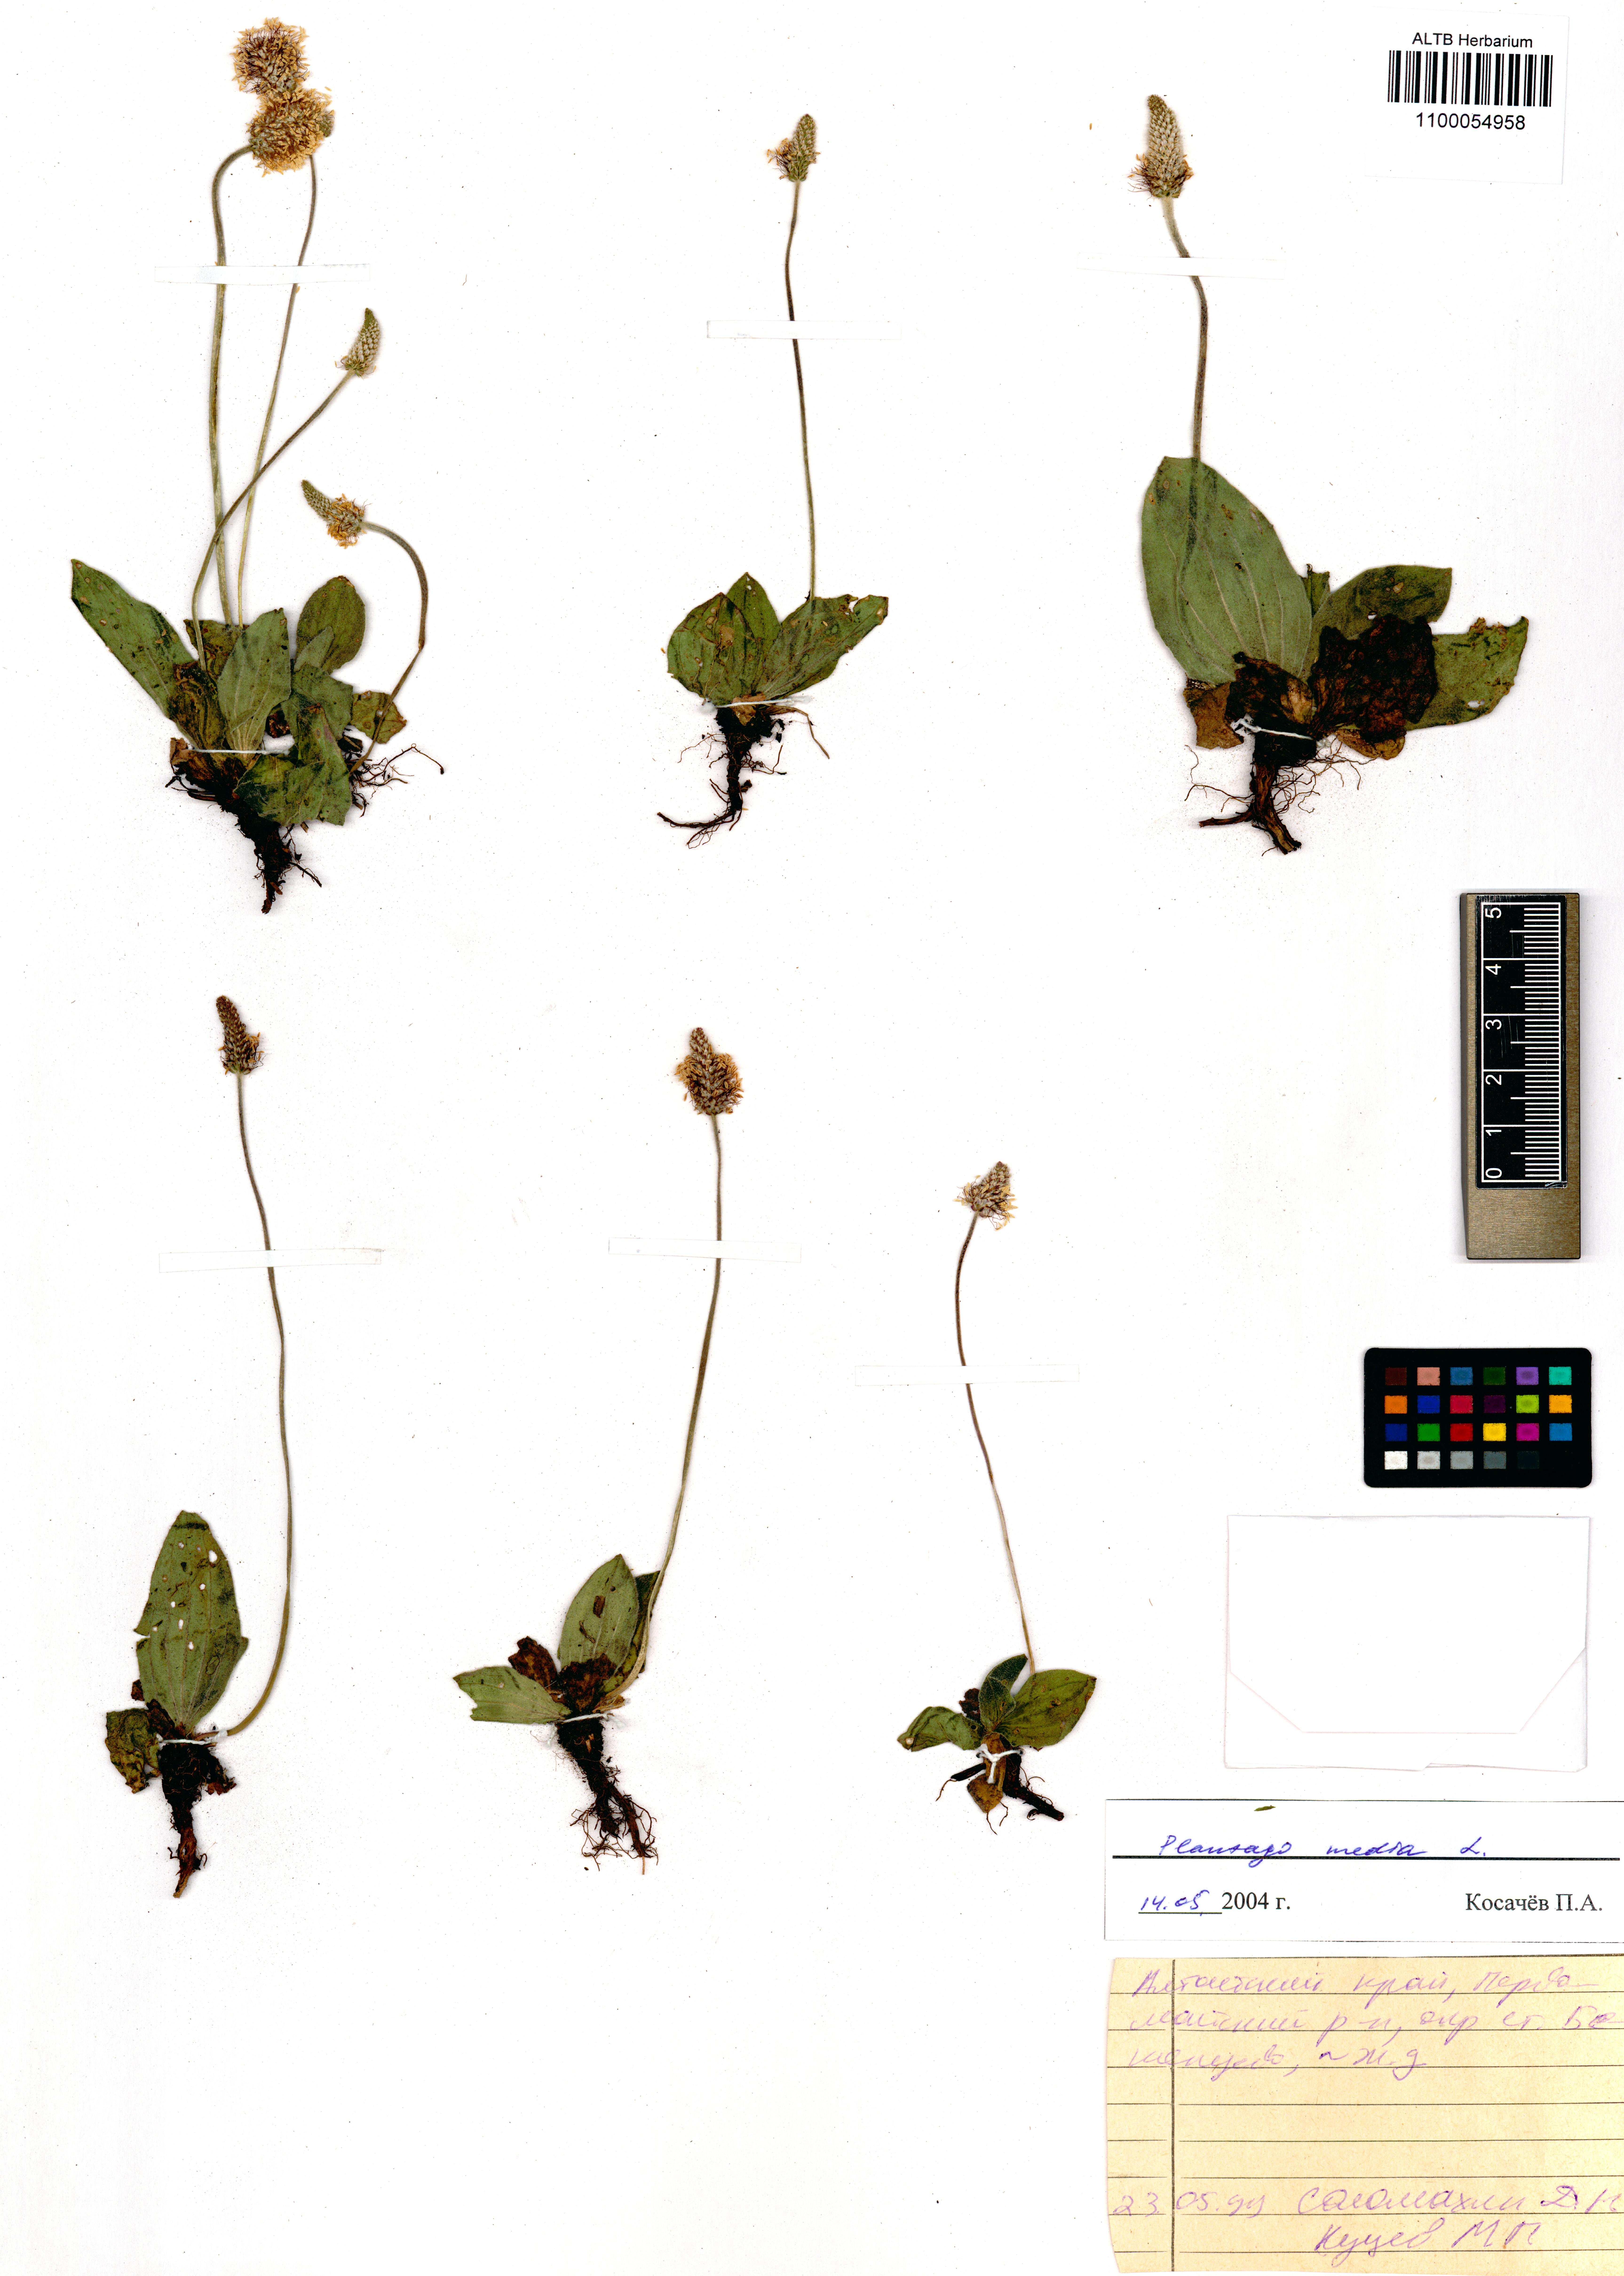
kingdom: Plantae
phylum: Tracheophyta
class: Magnoliopsida
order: Lamiales
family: Plantaginaceae
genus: Plantago
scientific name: Plantago media
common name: Hoary plantain
